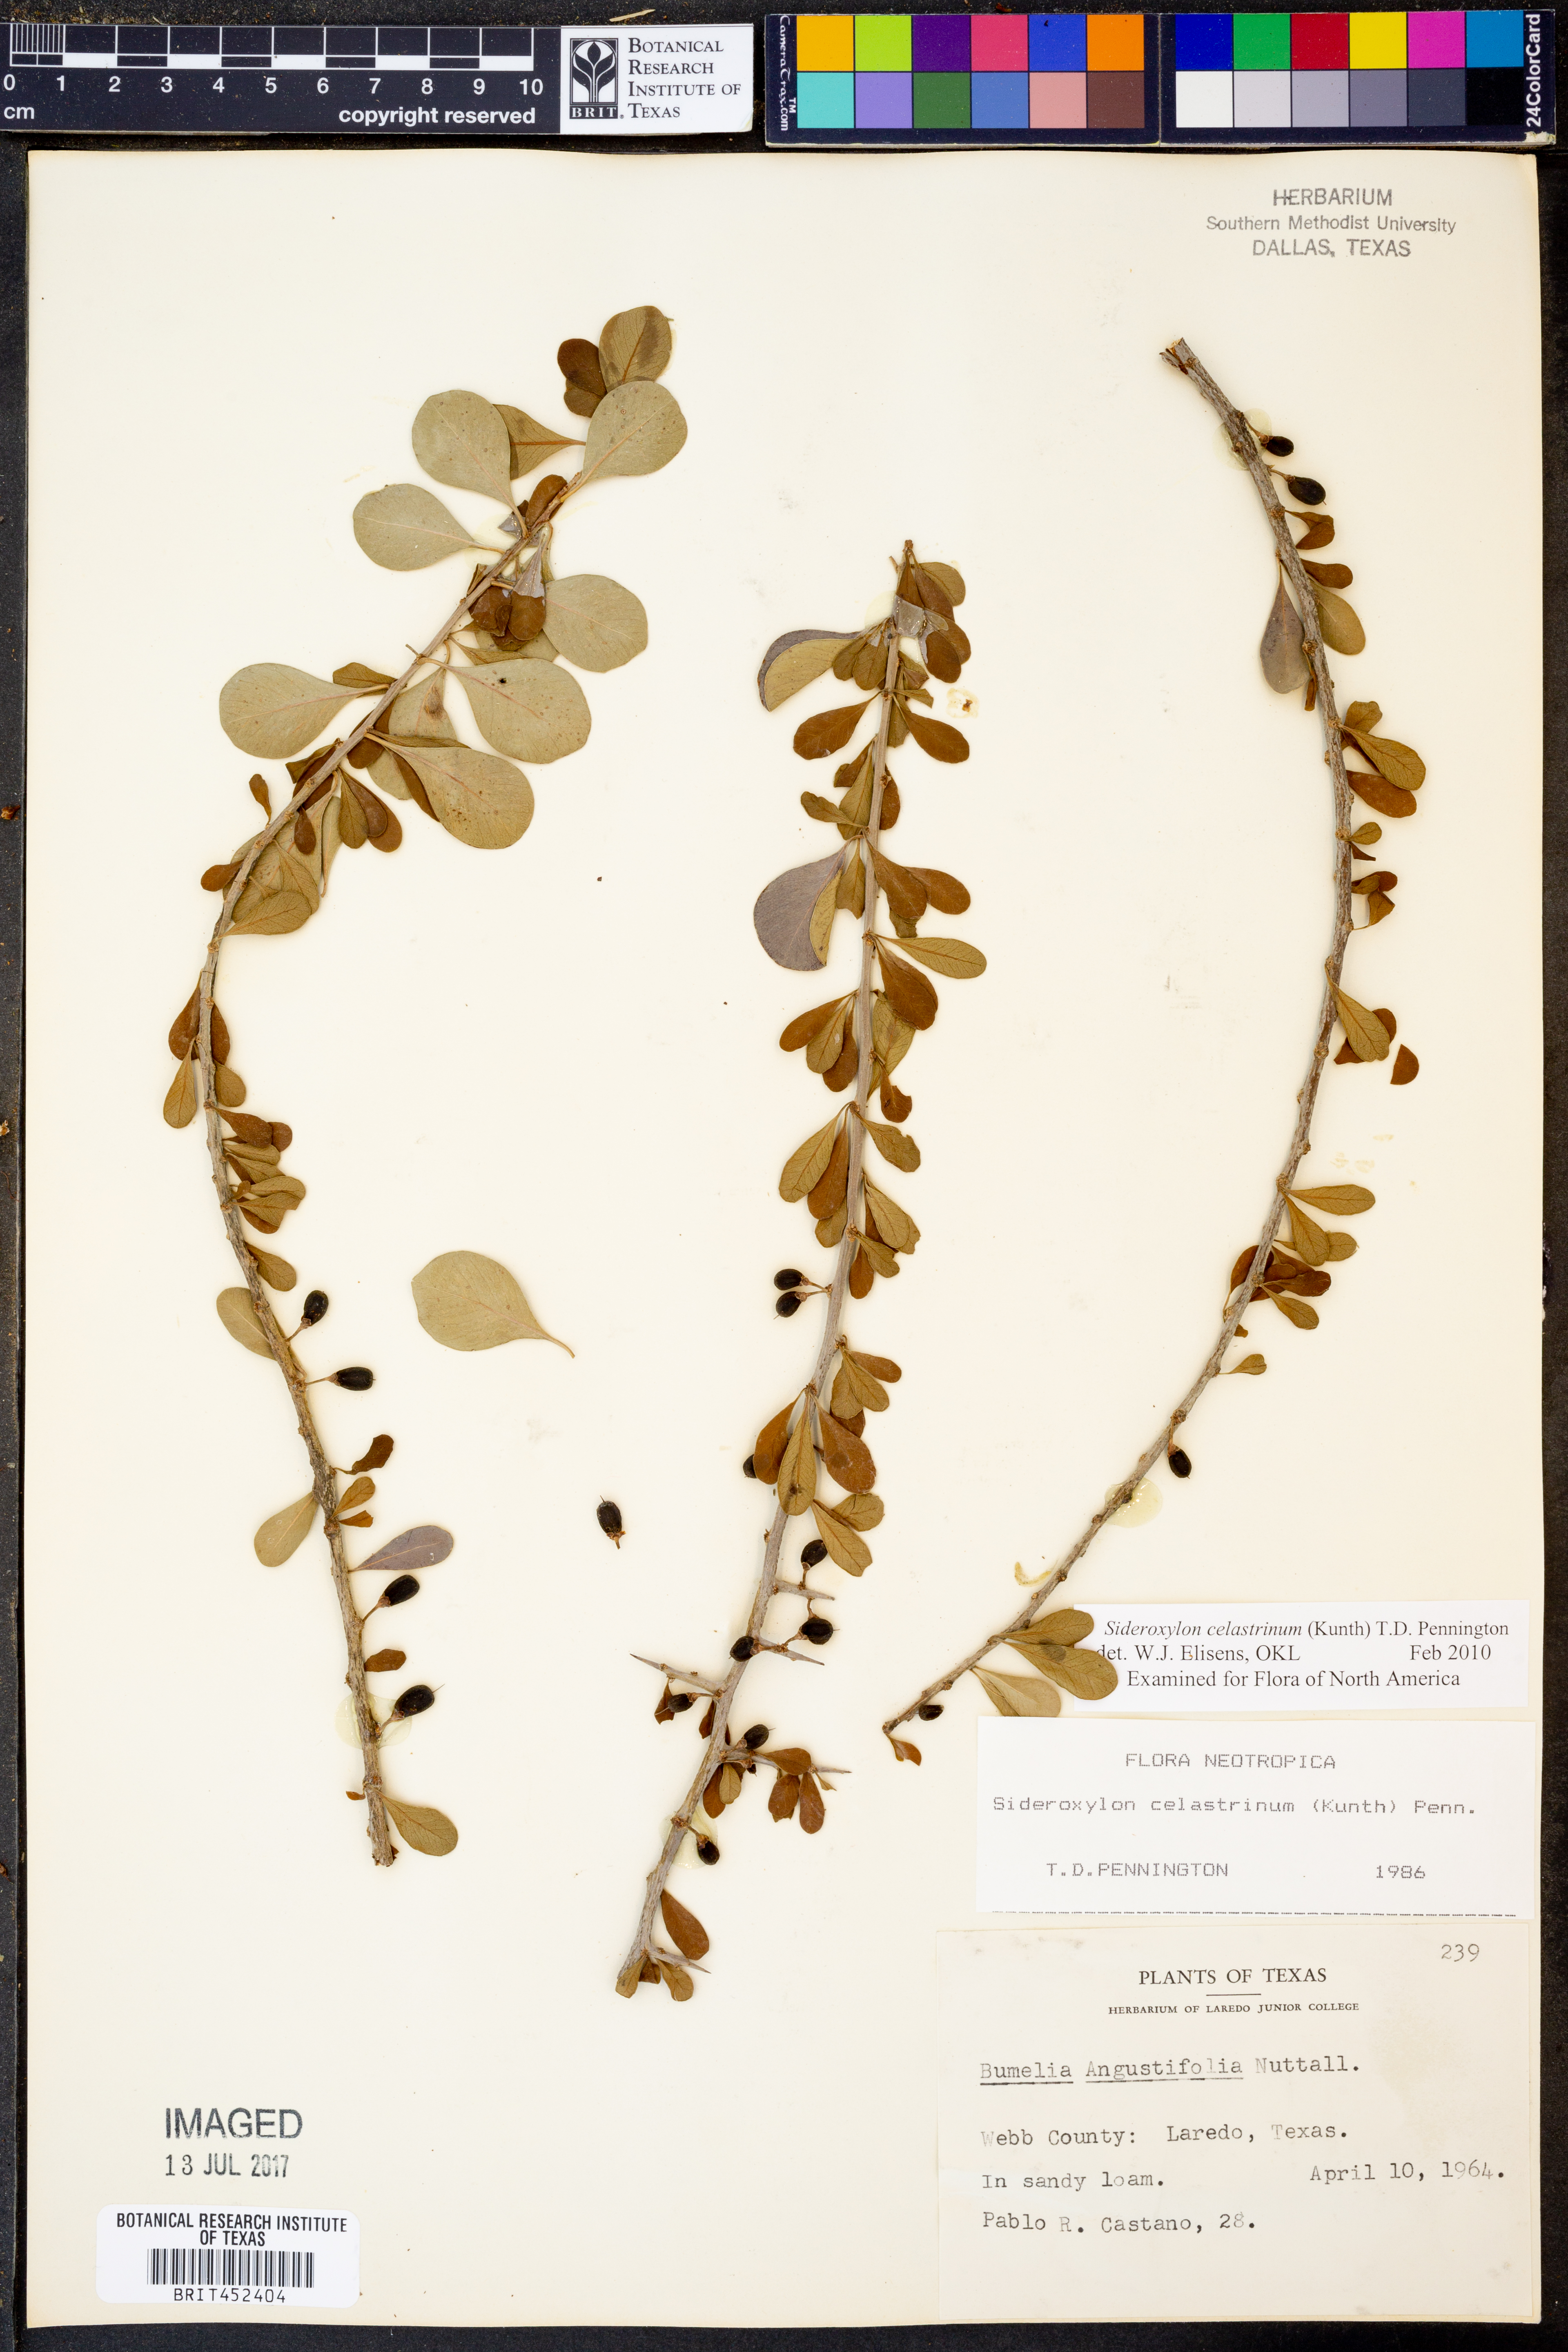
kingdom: Plantae
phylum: Tracheophyta
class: Magnoliopsida
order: Ericales
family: Sapotaceae
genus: Sideroxylon
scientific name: Sideroxylon celastrinum
